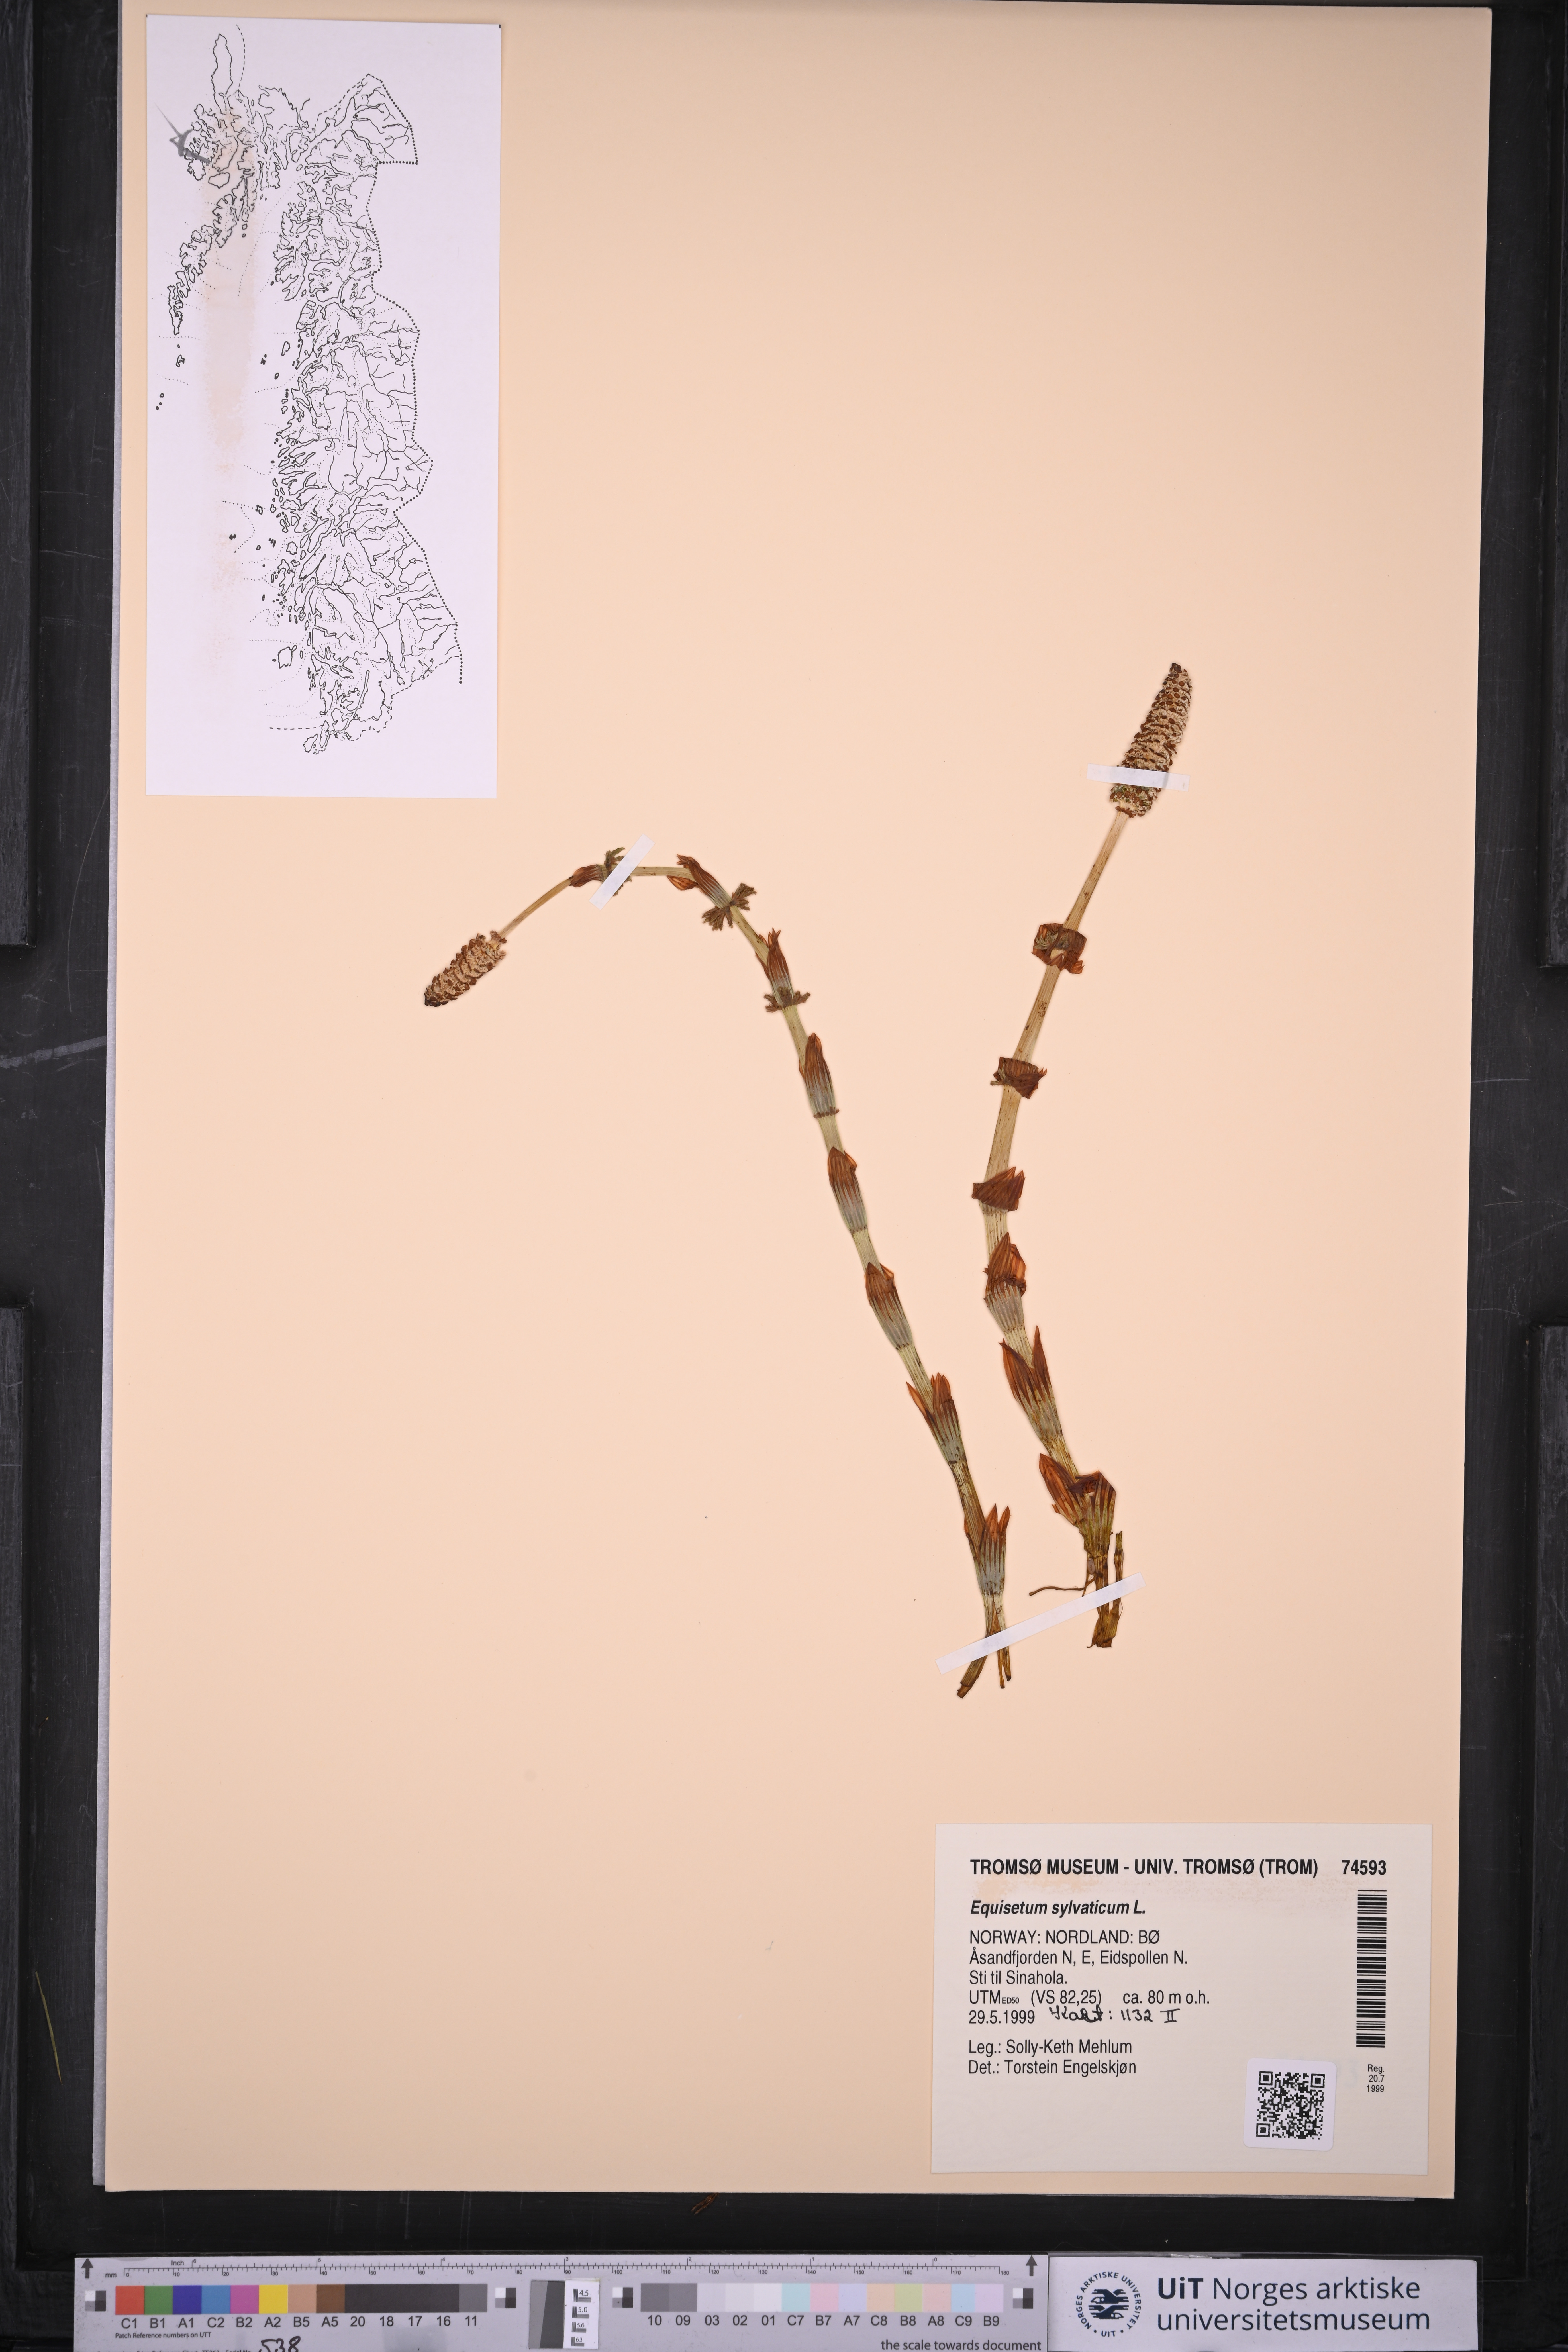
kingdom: Plantae
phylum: Tracheophyta
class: Polypodiopsida
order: Equisetales
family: Equisetaceae
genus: Equisetum
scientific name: Equisetum sylvaticum
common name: Wood horsetail
